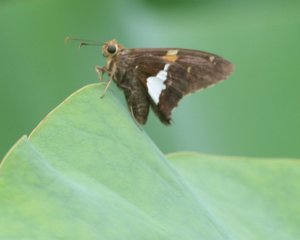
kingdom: Animalia
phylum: Arthropoda
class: Insecta
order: Lepidoptera
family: Hesperiidae
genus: Epargyreus
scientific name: Epargyreus clarus
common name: Silver-spotted Skipper
